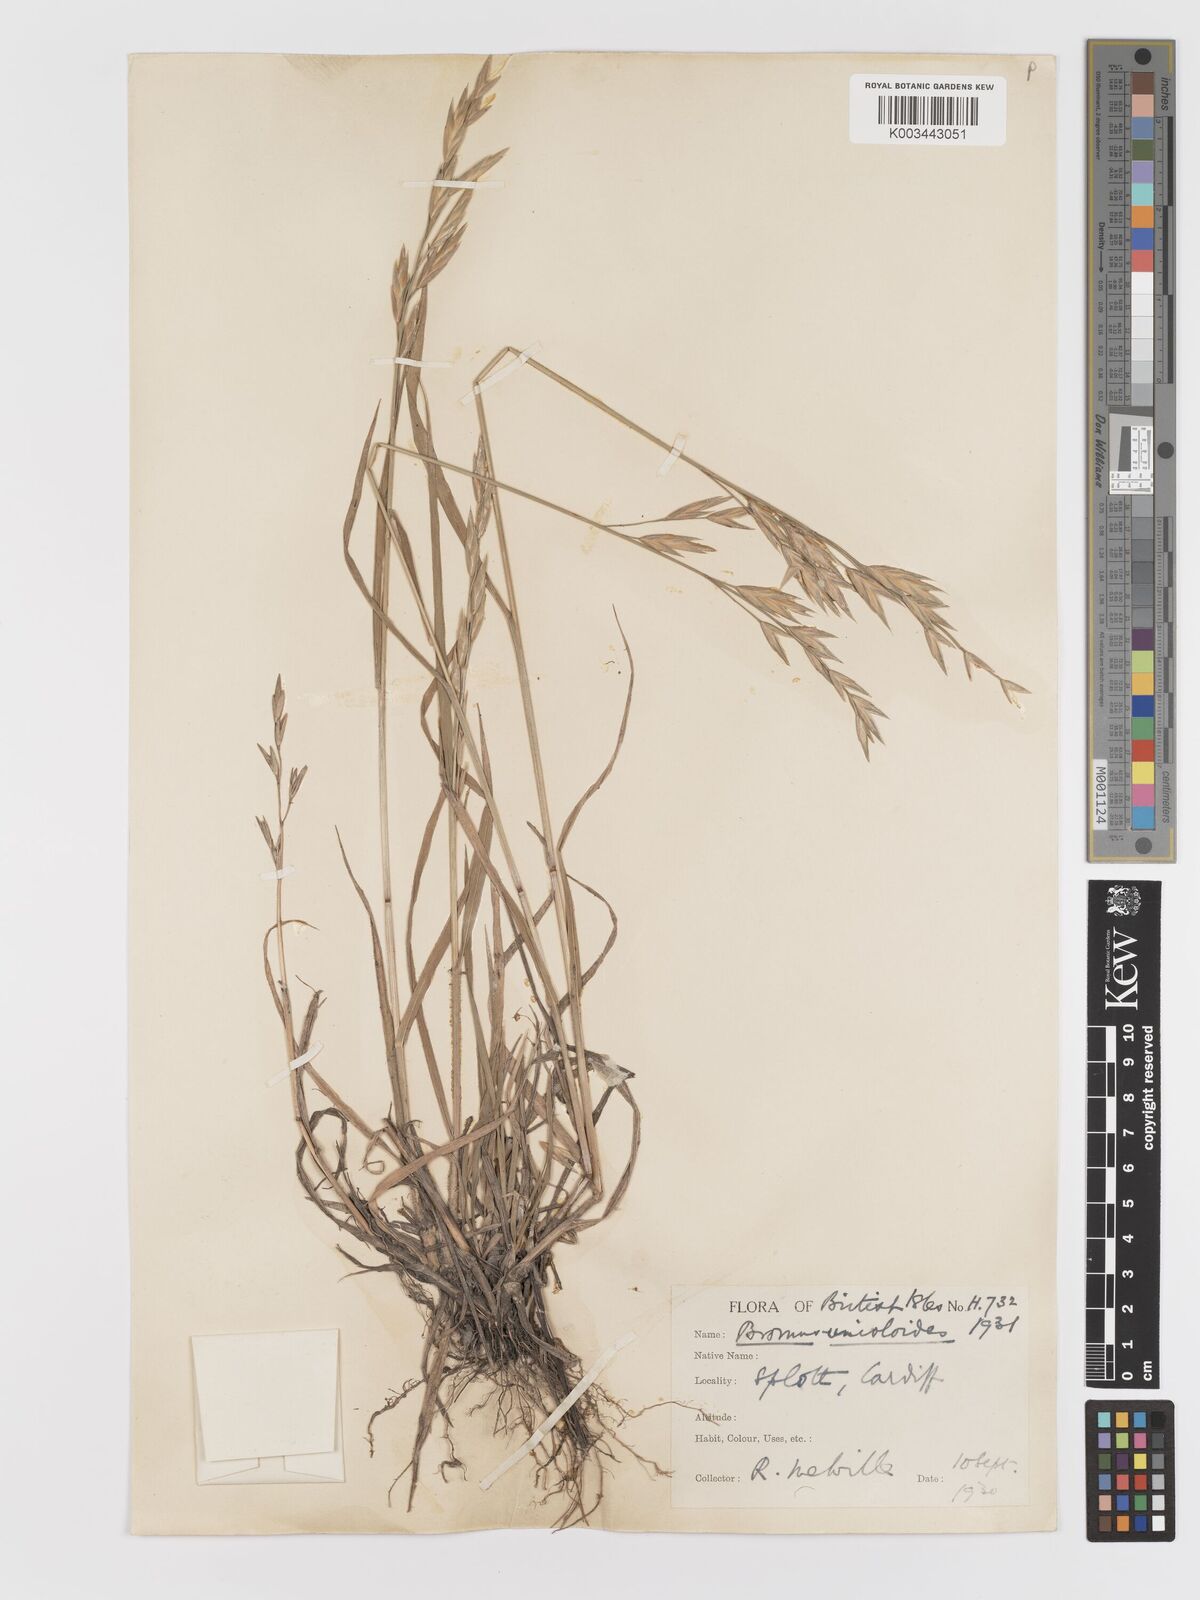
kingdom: Plantae
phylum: Tracheophyta
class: Liliopsida
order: Poales
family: Poaceae
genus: Bromus
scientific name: Bromus catharticus
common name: Rescuegrass
